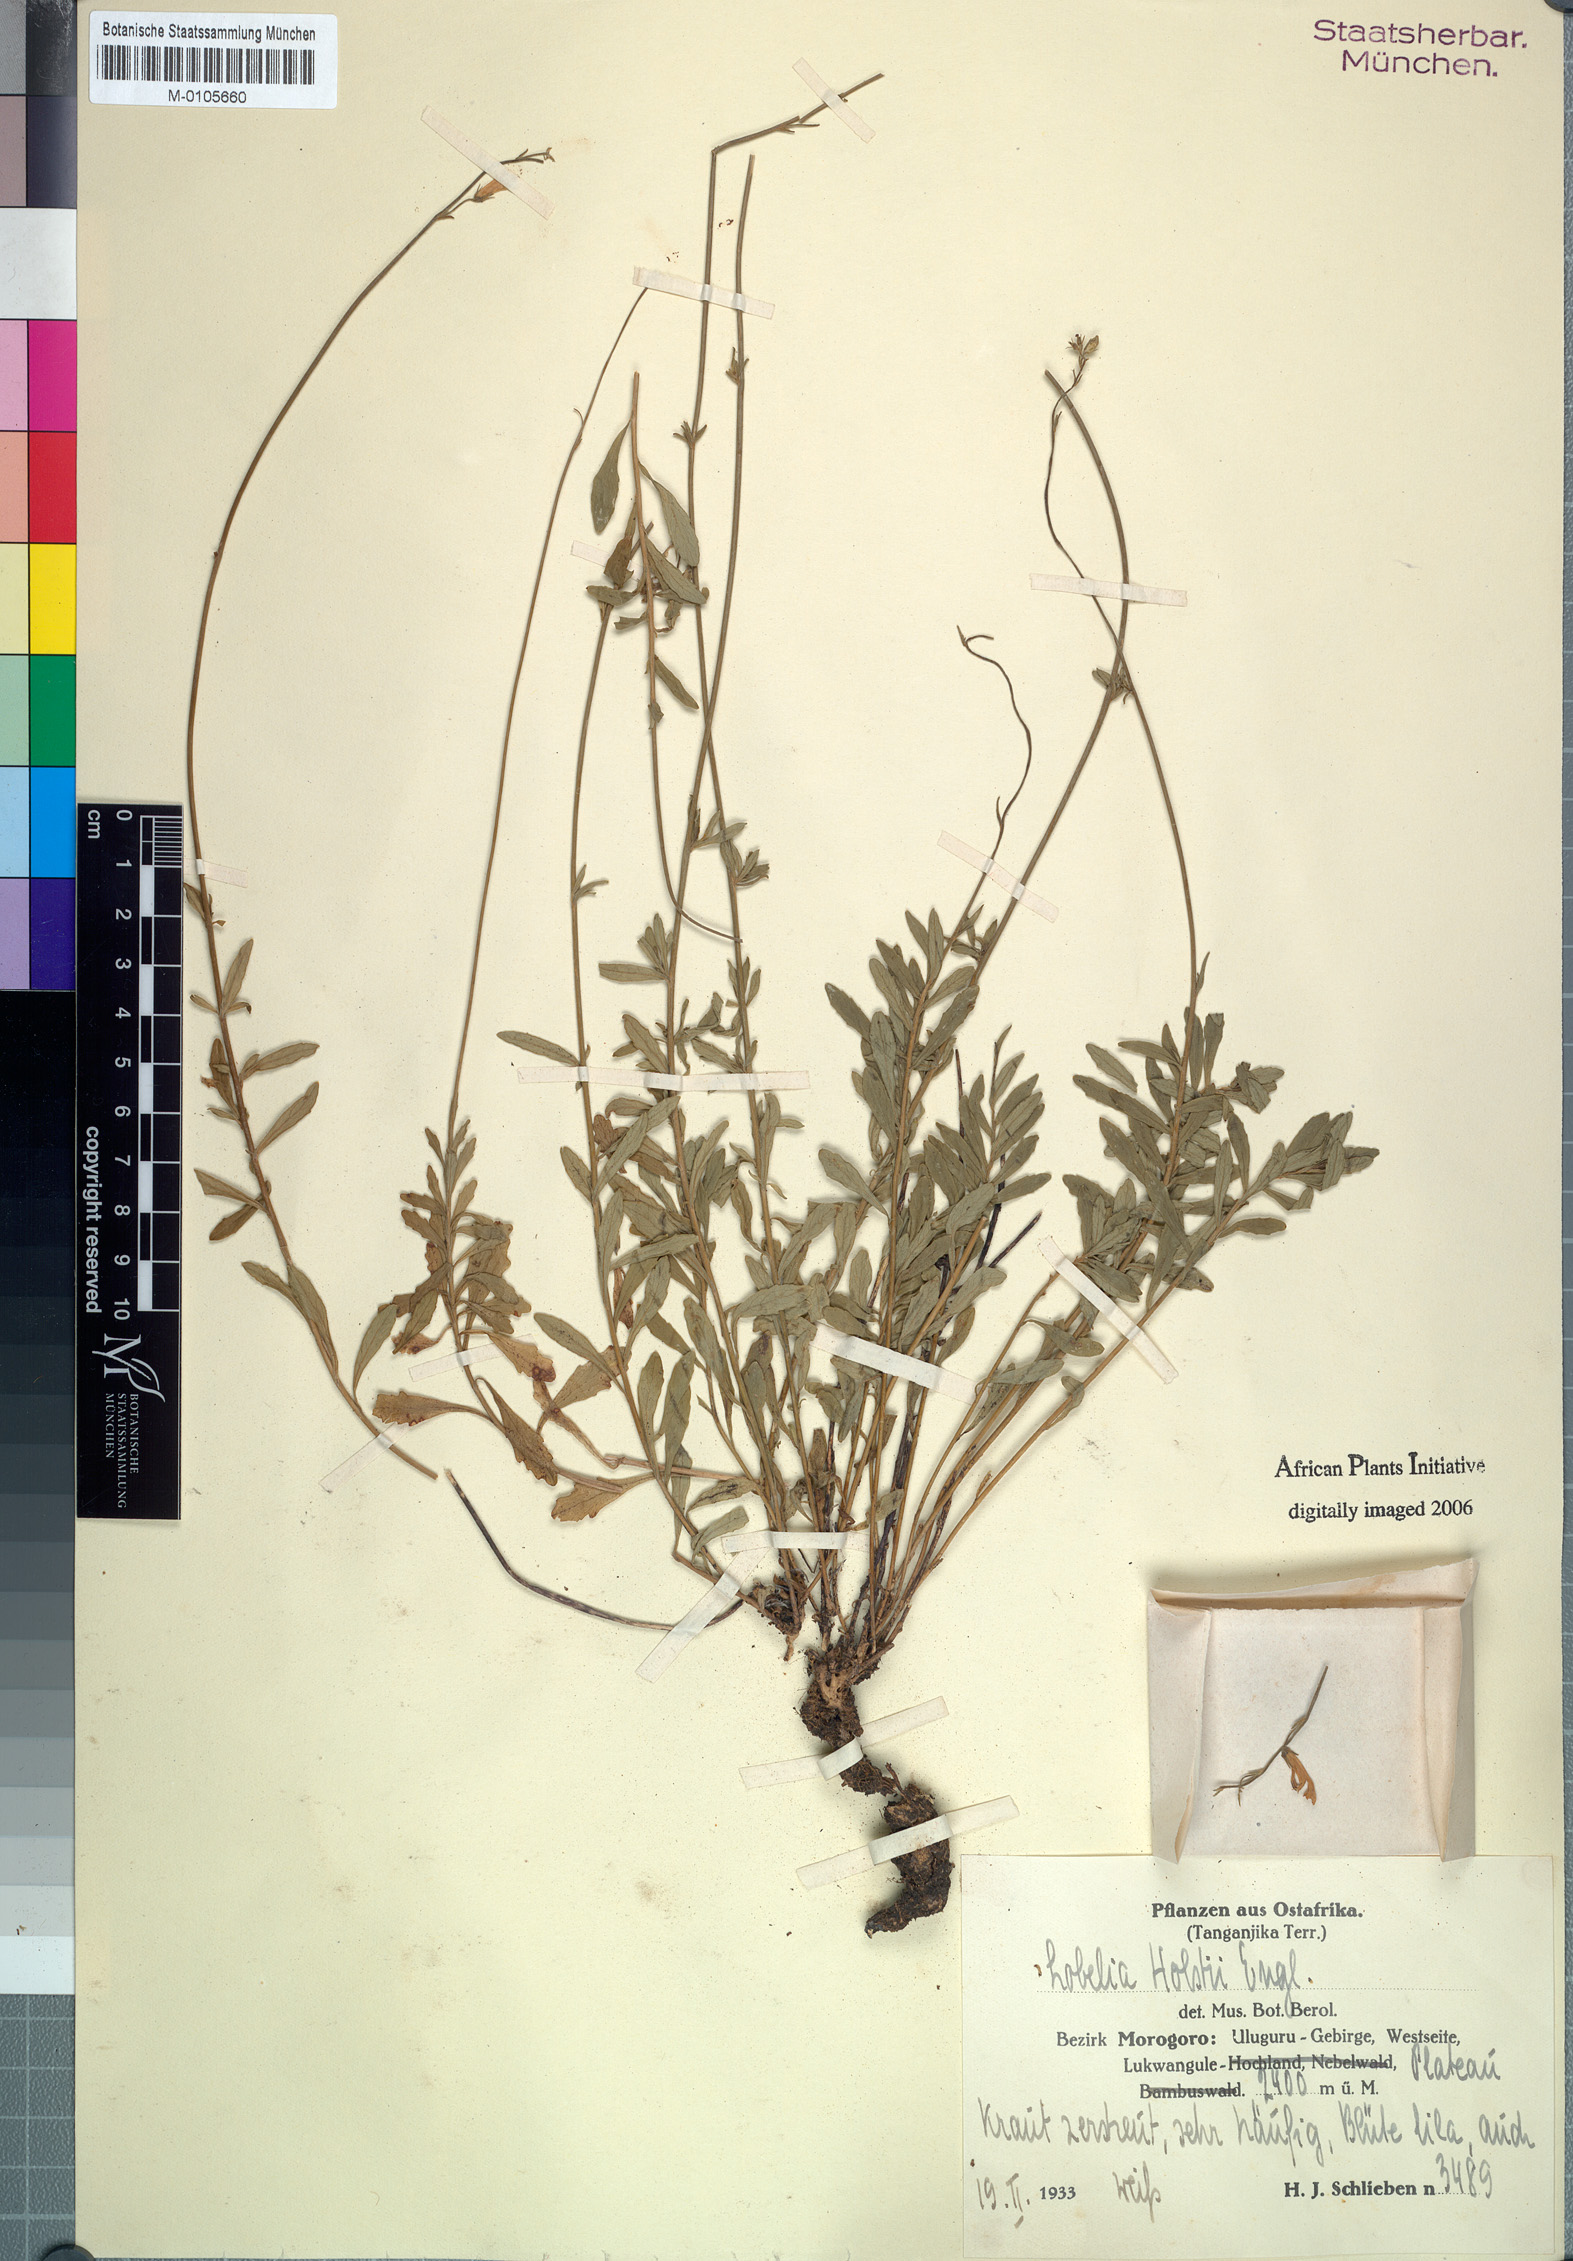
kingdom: Plantae
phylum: Tracheophyta
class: Magnoliopsida
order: Asterales
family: Campanulaceae
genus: Lobelia
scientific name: Lobelia holstii
